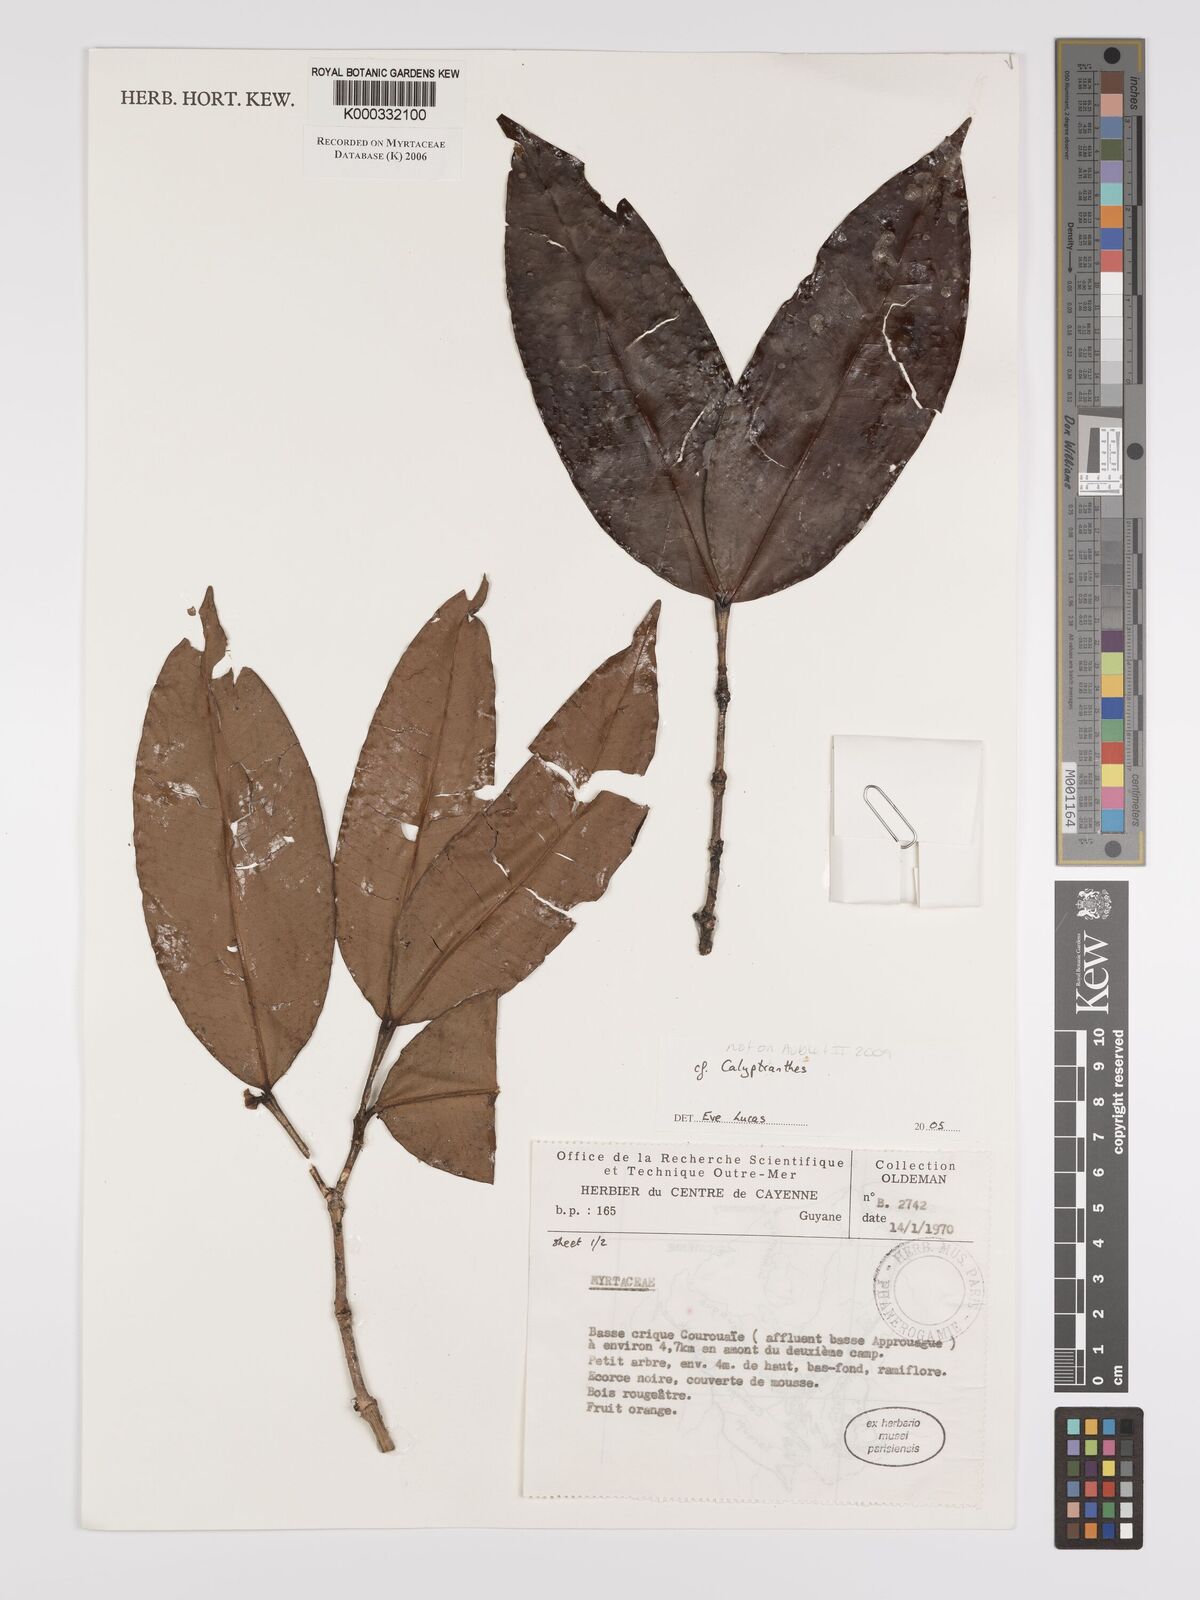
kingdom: Plantae
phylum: Tracheophyta
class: Magnoliopsida
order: Myrtales
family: Myrtaceae
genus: Calyptranthes
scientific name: Calyptranthes
